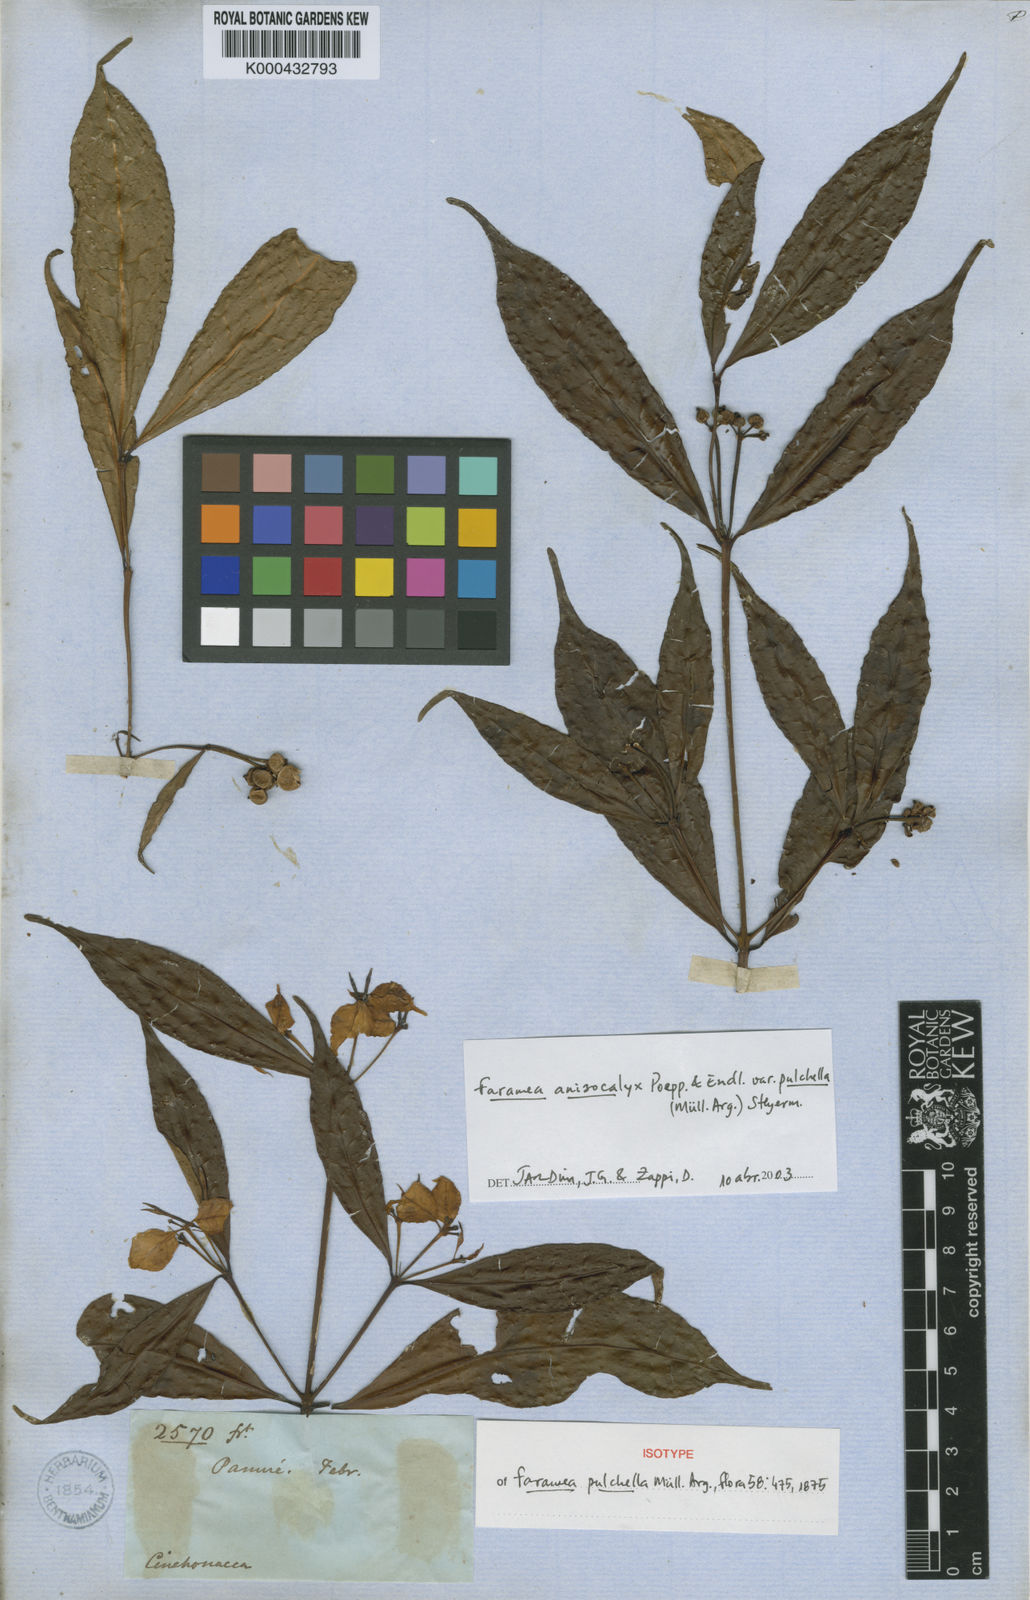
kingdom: Plantae
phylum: Tracheophyta
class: Magnoliopsida
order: Gentianales
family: Rubiaceae
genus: Faramea
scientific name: Faramea anisocalyx
